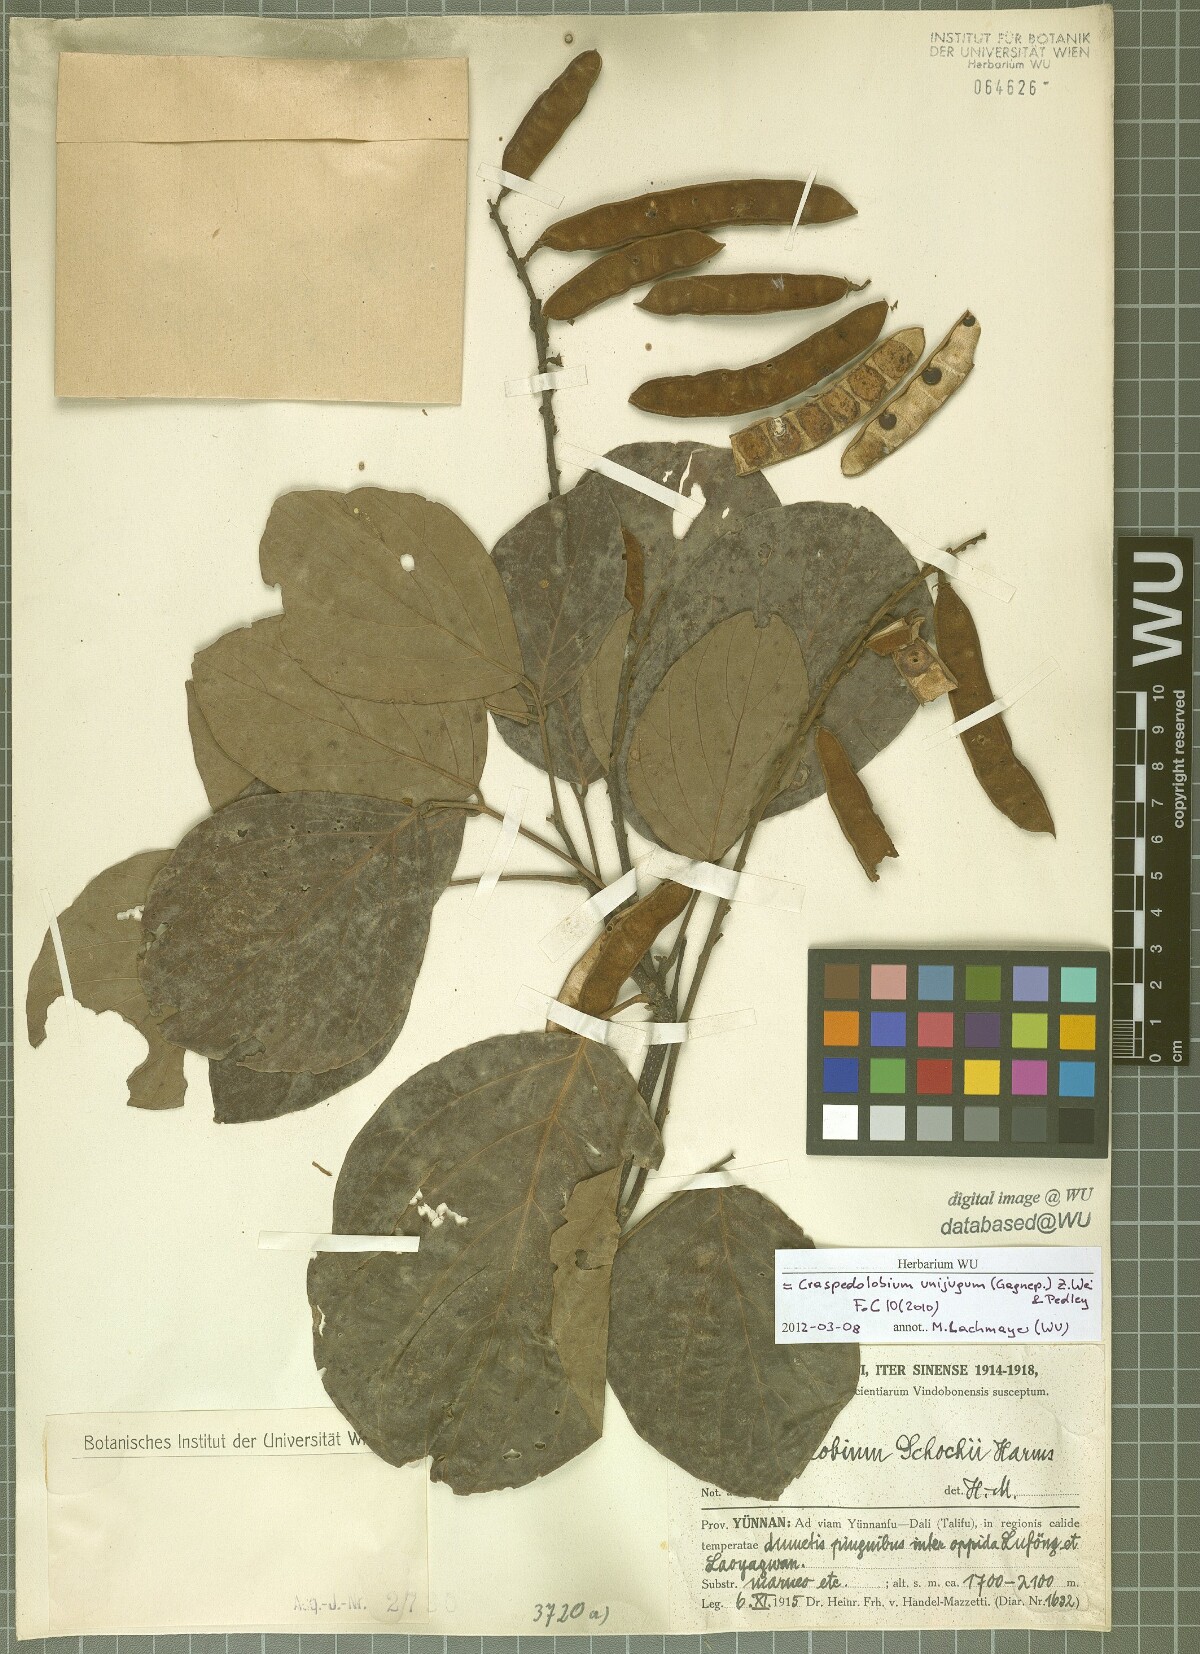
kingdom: Plantae
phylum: Tracheophyta
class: Magnoliopsida
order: Fabales
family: Fabaceae
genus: Craspedolobium
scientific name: Craspedolobium unijugum
